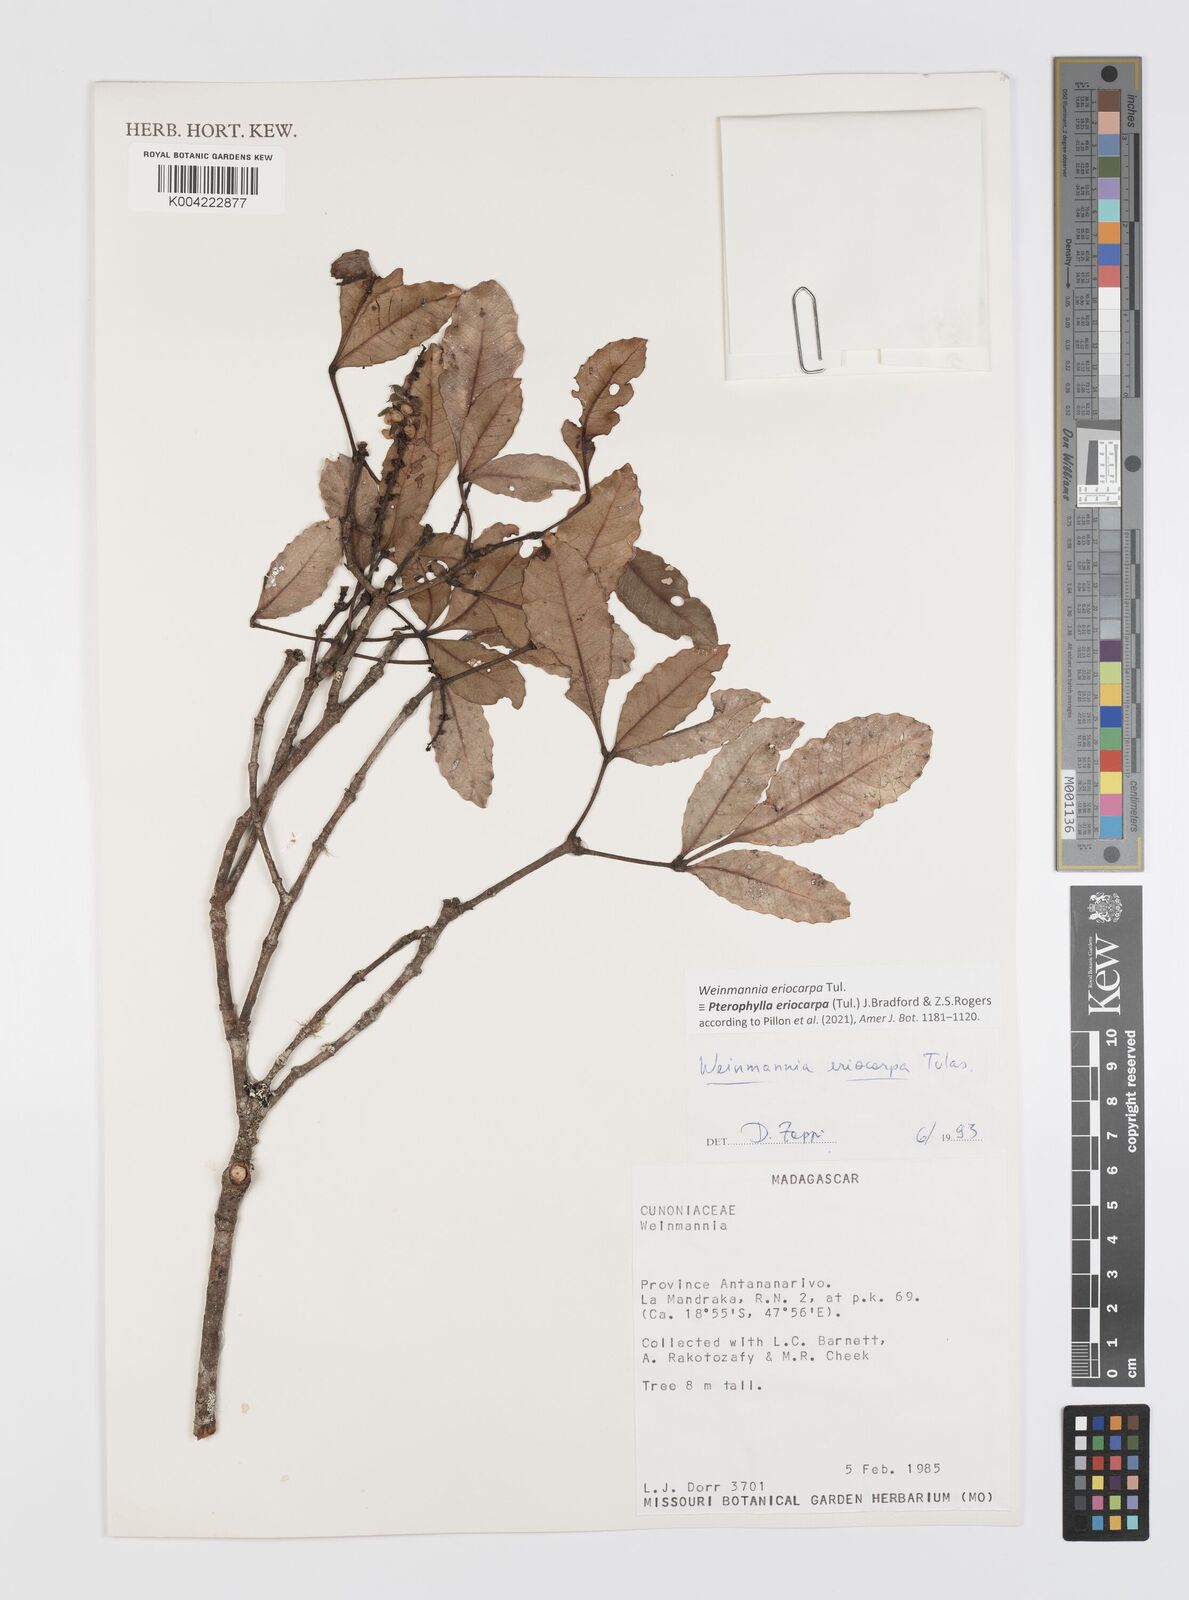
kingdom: Plantae
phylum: Tracheophyta
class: Magnoliopsida
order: Oxalidales
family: Cunoniaceae
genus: Pterophylla
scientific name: Pterophylla eriocarpa
